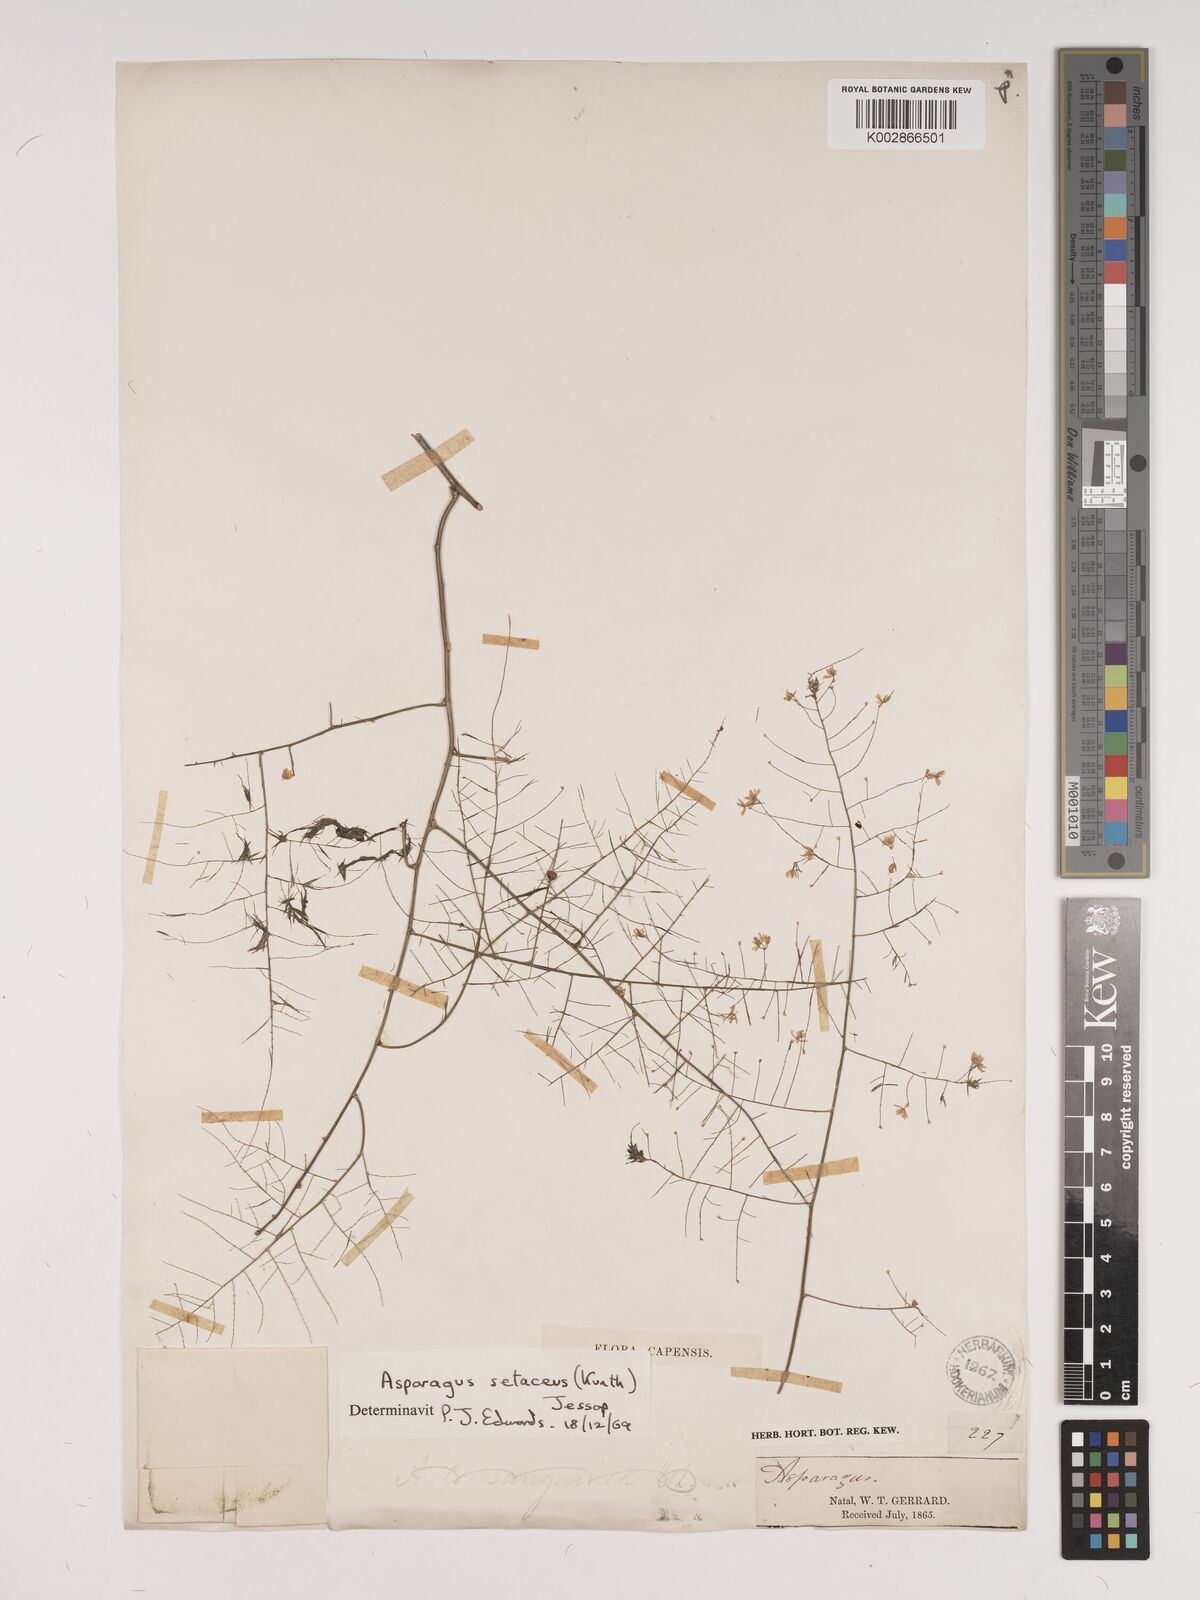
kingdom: Plantae
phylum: Tracheophyta
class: Liliopsida
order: Asparagales
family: Asparagaceae
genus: Asparagus
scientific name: Asparagus setaceus
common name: Common asparagus fern
